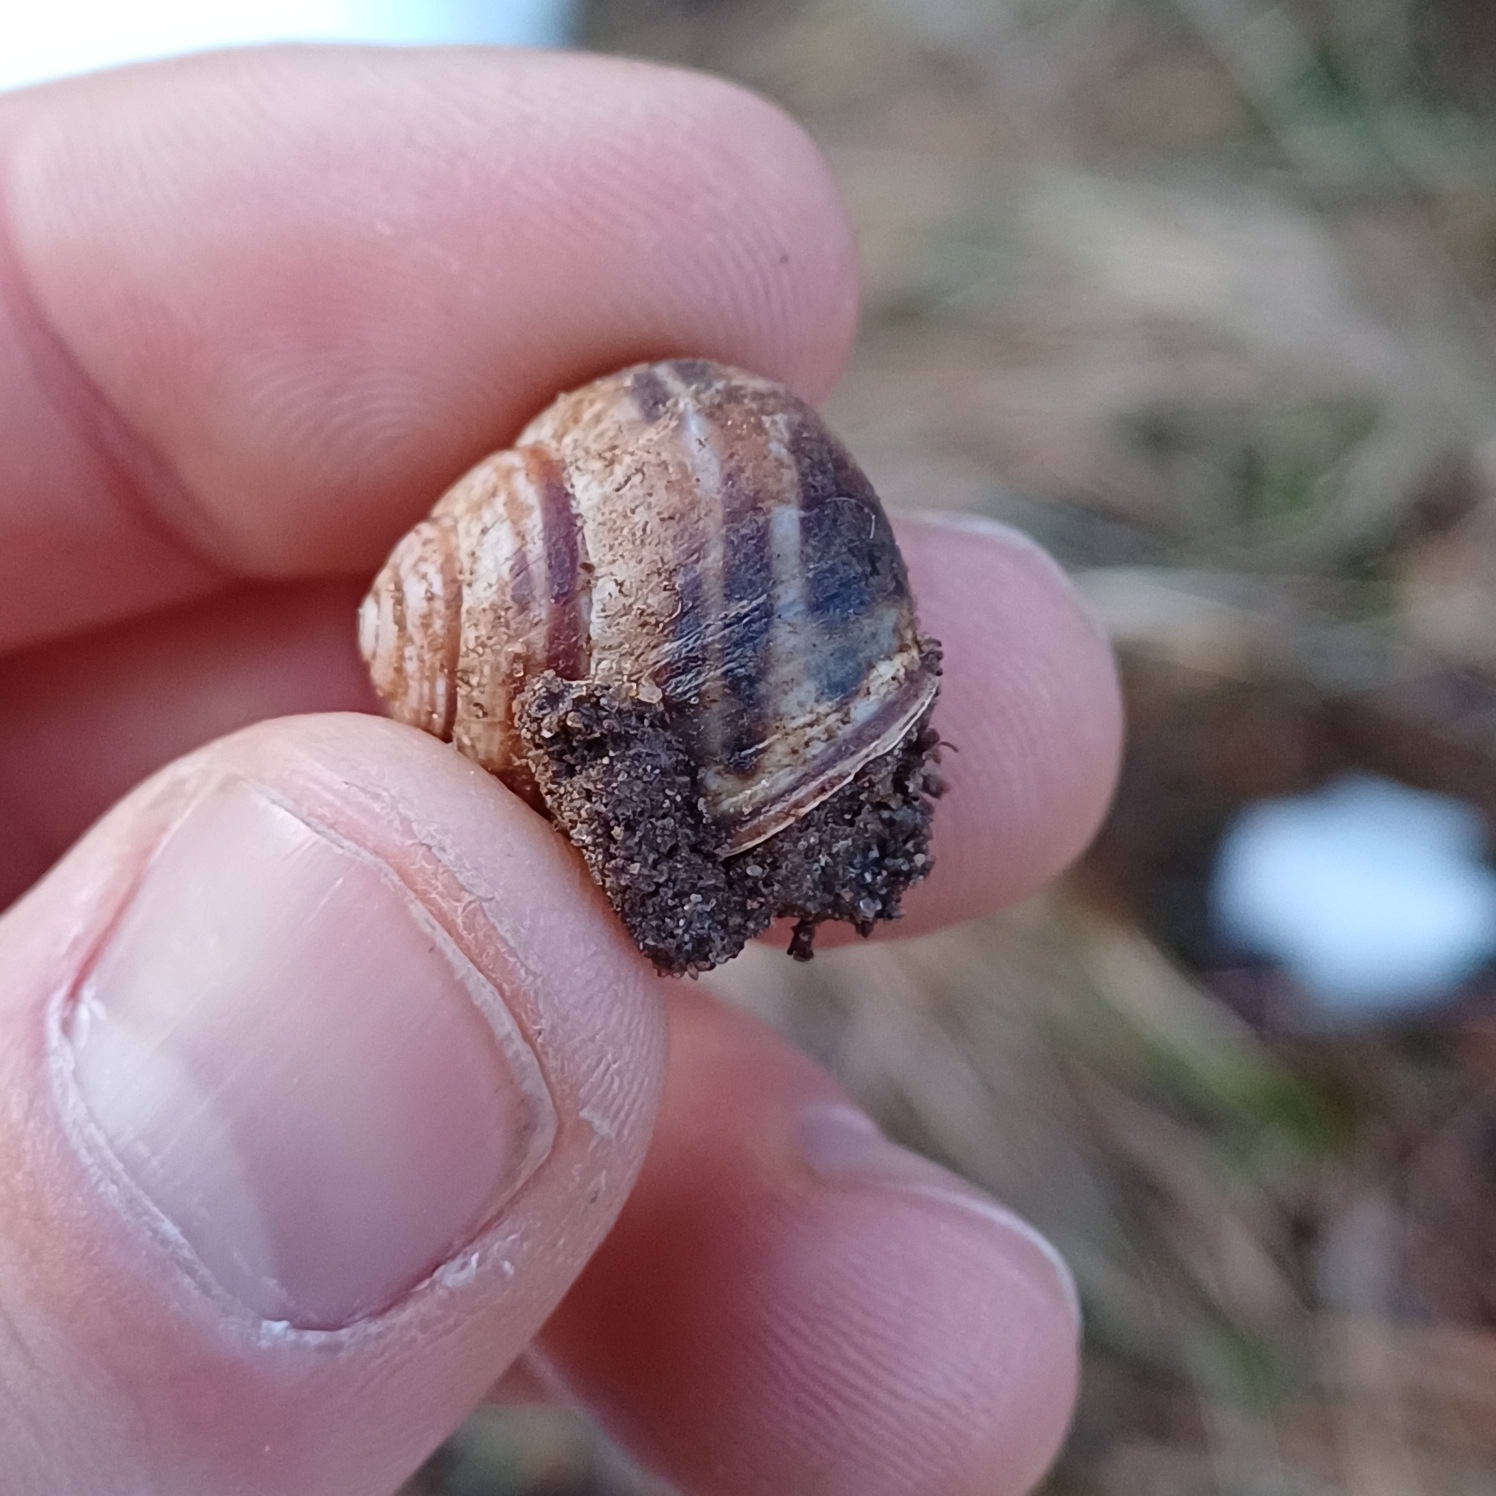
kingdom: Animalia
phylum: Mollusca
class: Gastropoda
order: Stylommatophora
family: Helicidae
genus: Cepaea
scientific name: Cepaea nemoralis
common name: Lundsnegl
